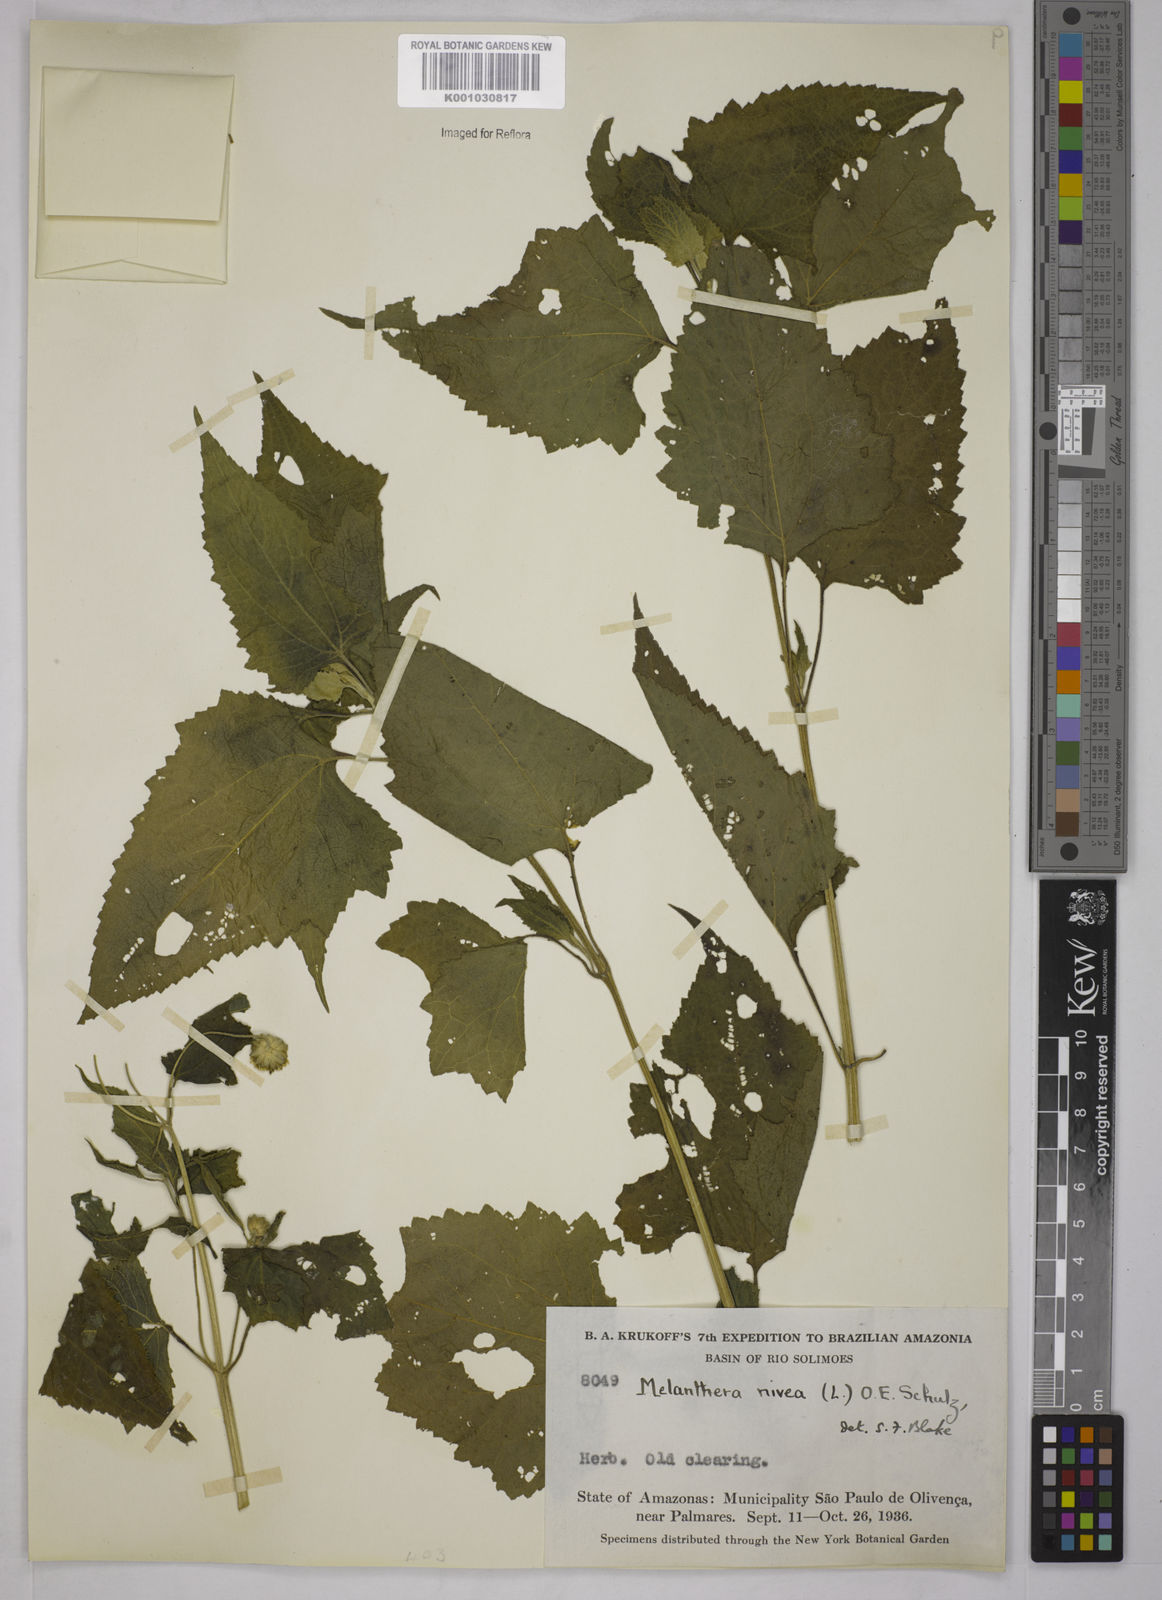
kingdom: Plantae
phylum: Tracheophyta
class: Magnoliopsida
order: Asterales
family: Asteraceae
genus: Melanthera
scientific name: Melanthera nivea
